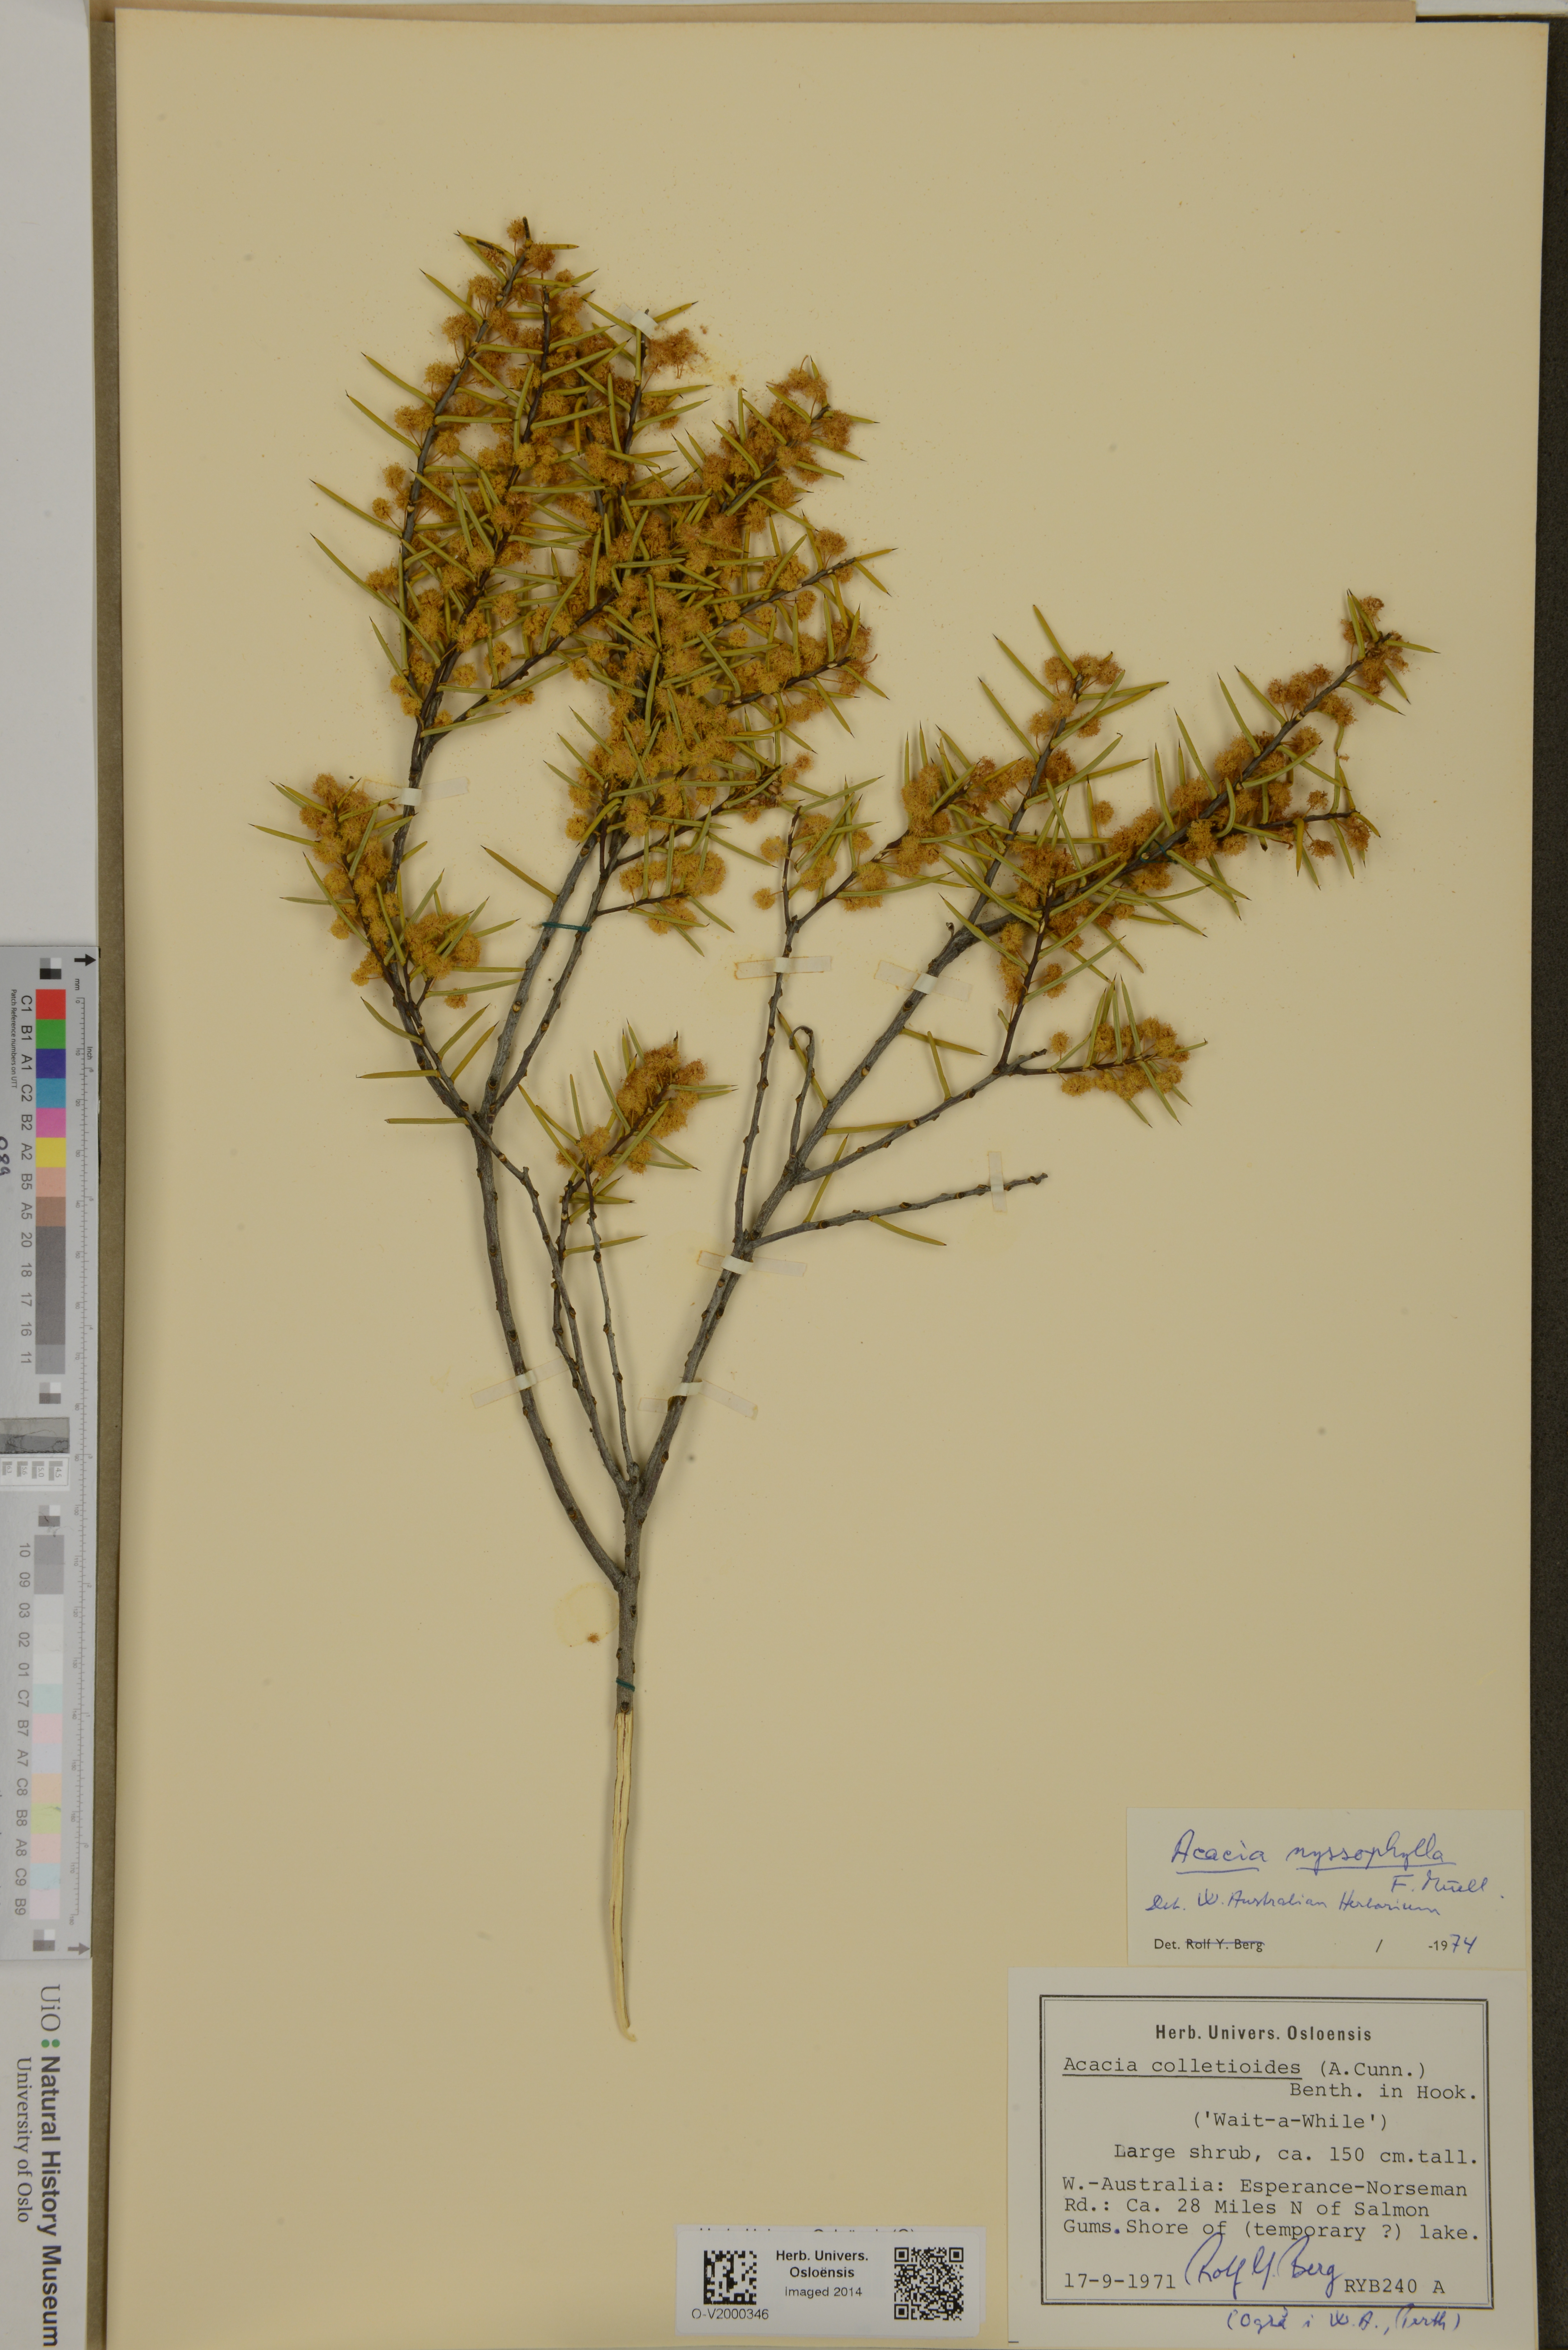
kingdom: Plantae
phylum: Tracheophyta
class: Magnoliopsida
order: Fabales
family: Fabaceae
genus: Acacia
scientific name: Acacia nyssophylla
